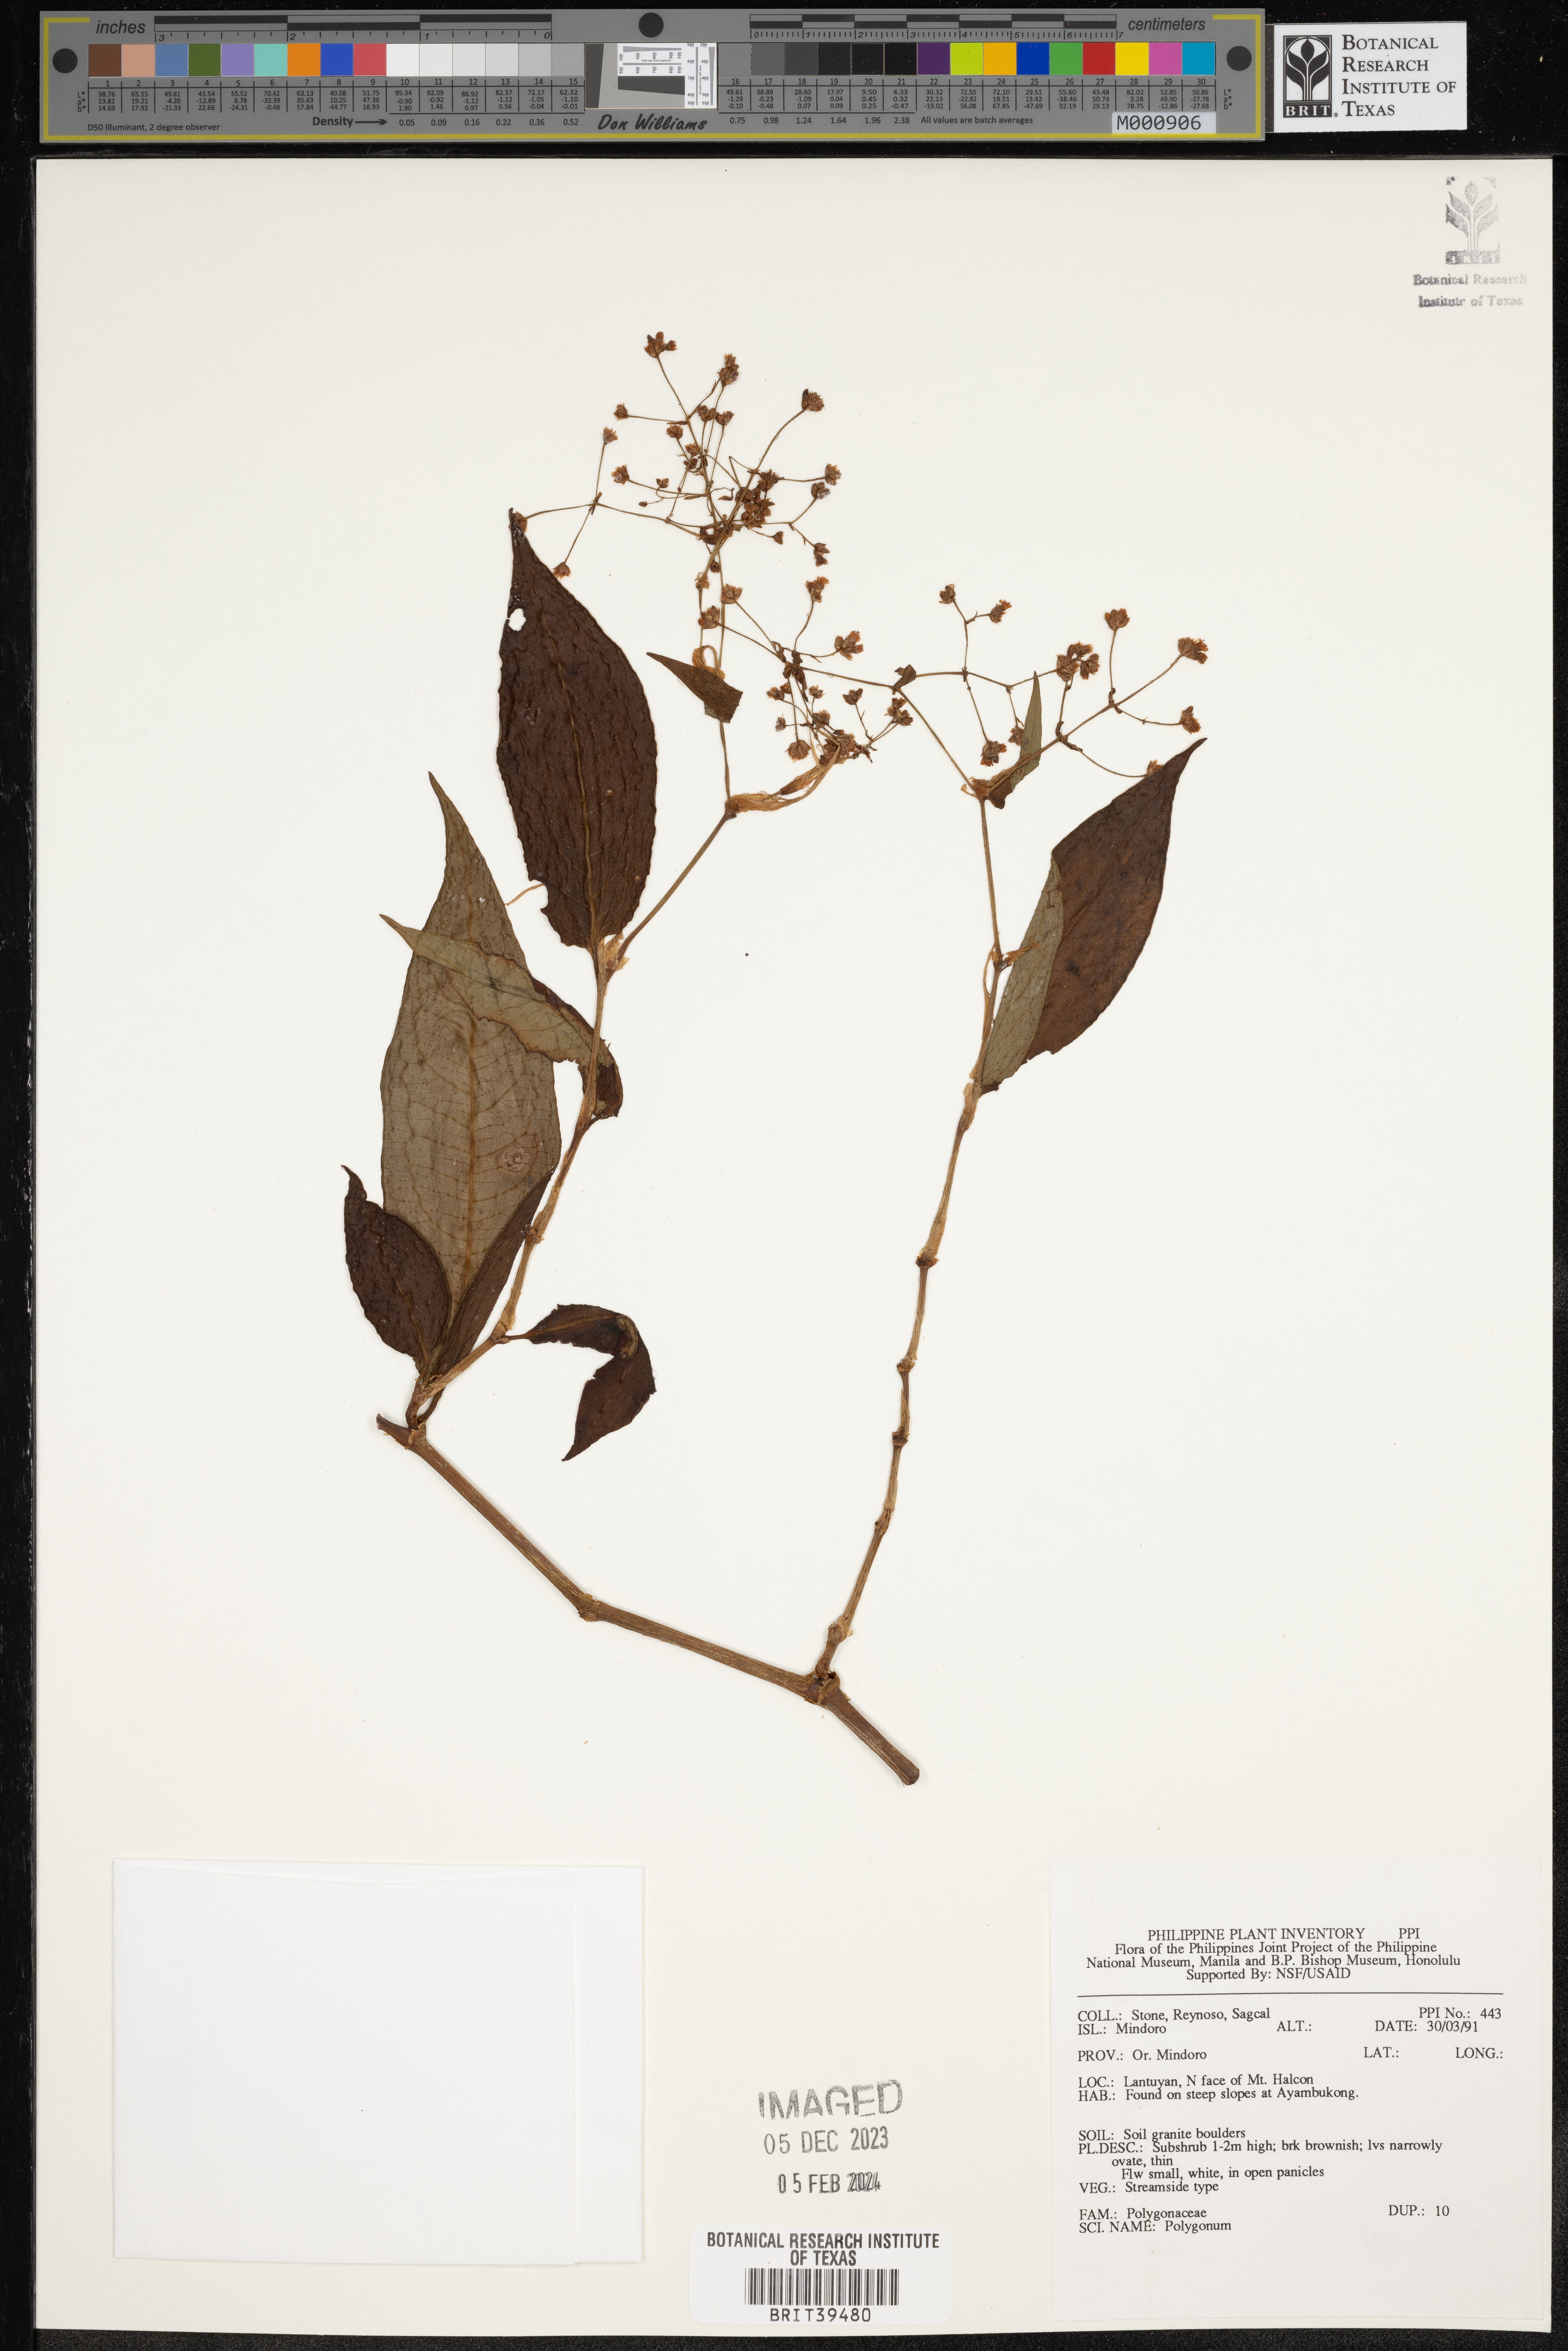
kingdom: Plantae
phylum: Tracheophyta
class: Magnoliopsida
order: Caryophyllales
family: Polygonaceae
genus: Polygonum
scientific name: Polygonum
